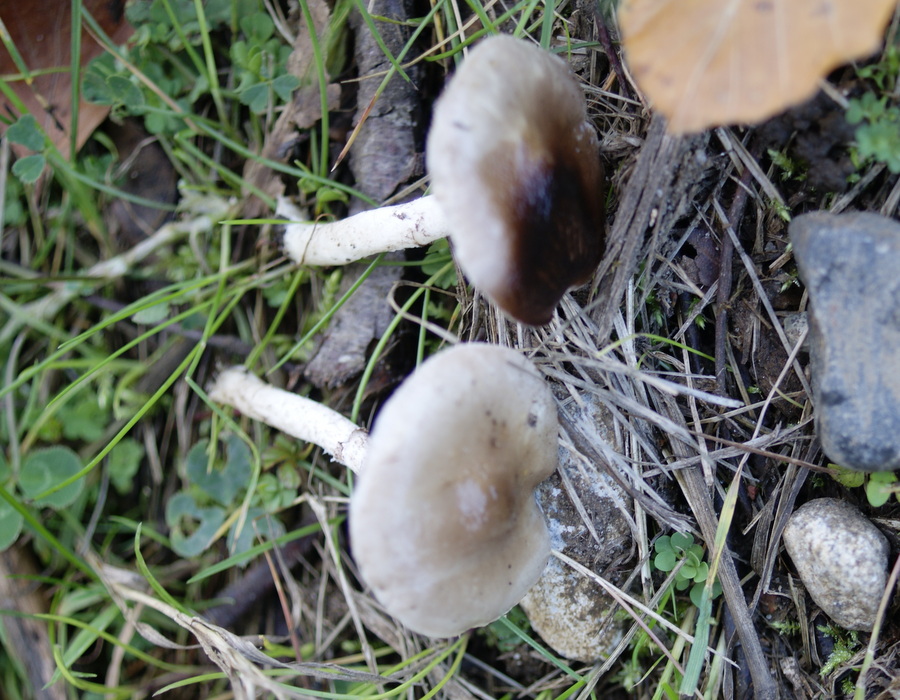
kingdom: Fungi
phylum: Basidiomycota
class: Agaricomycetes
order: Agaricales
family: Strophariaceae
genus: Stropharia
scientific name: Stropharia inuncta
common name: lillabrun bredblad
